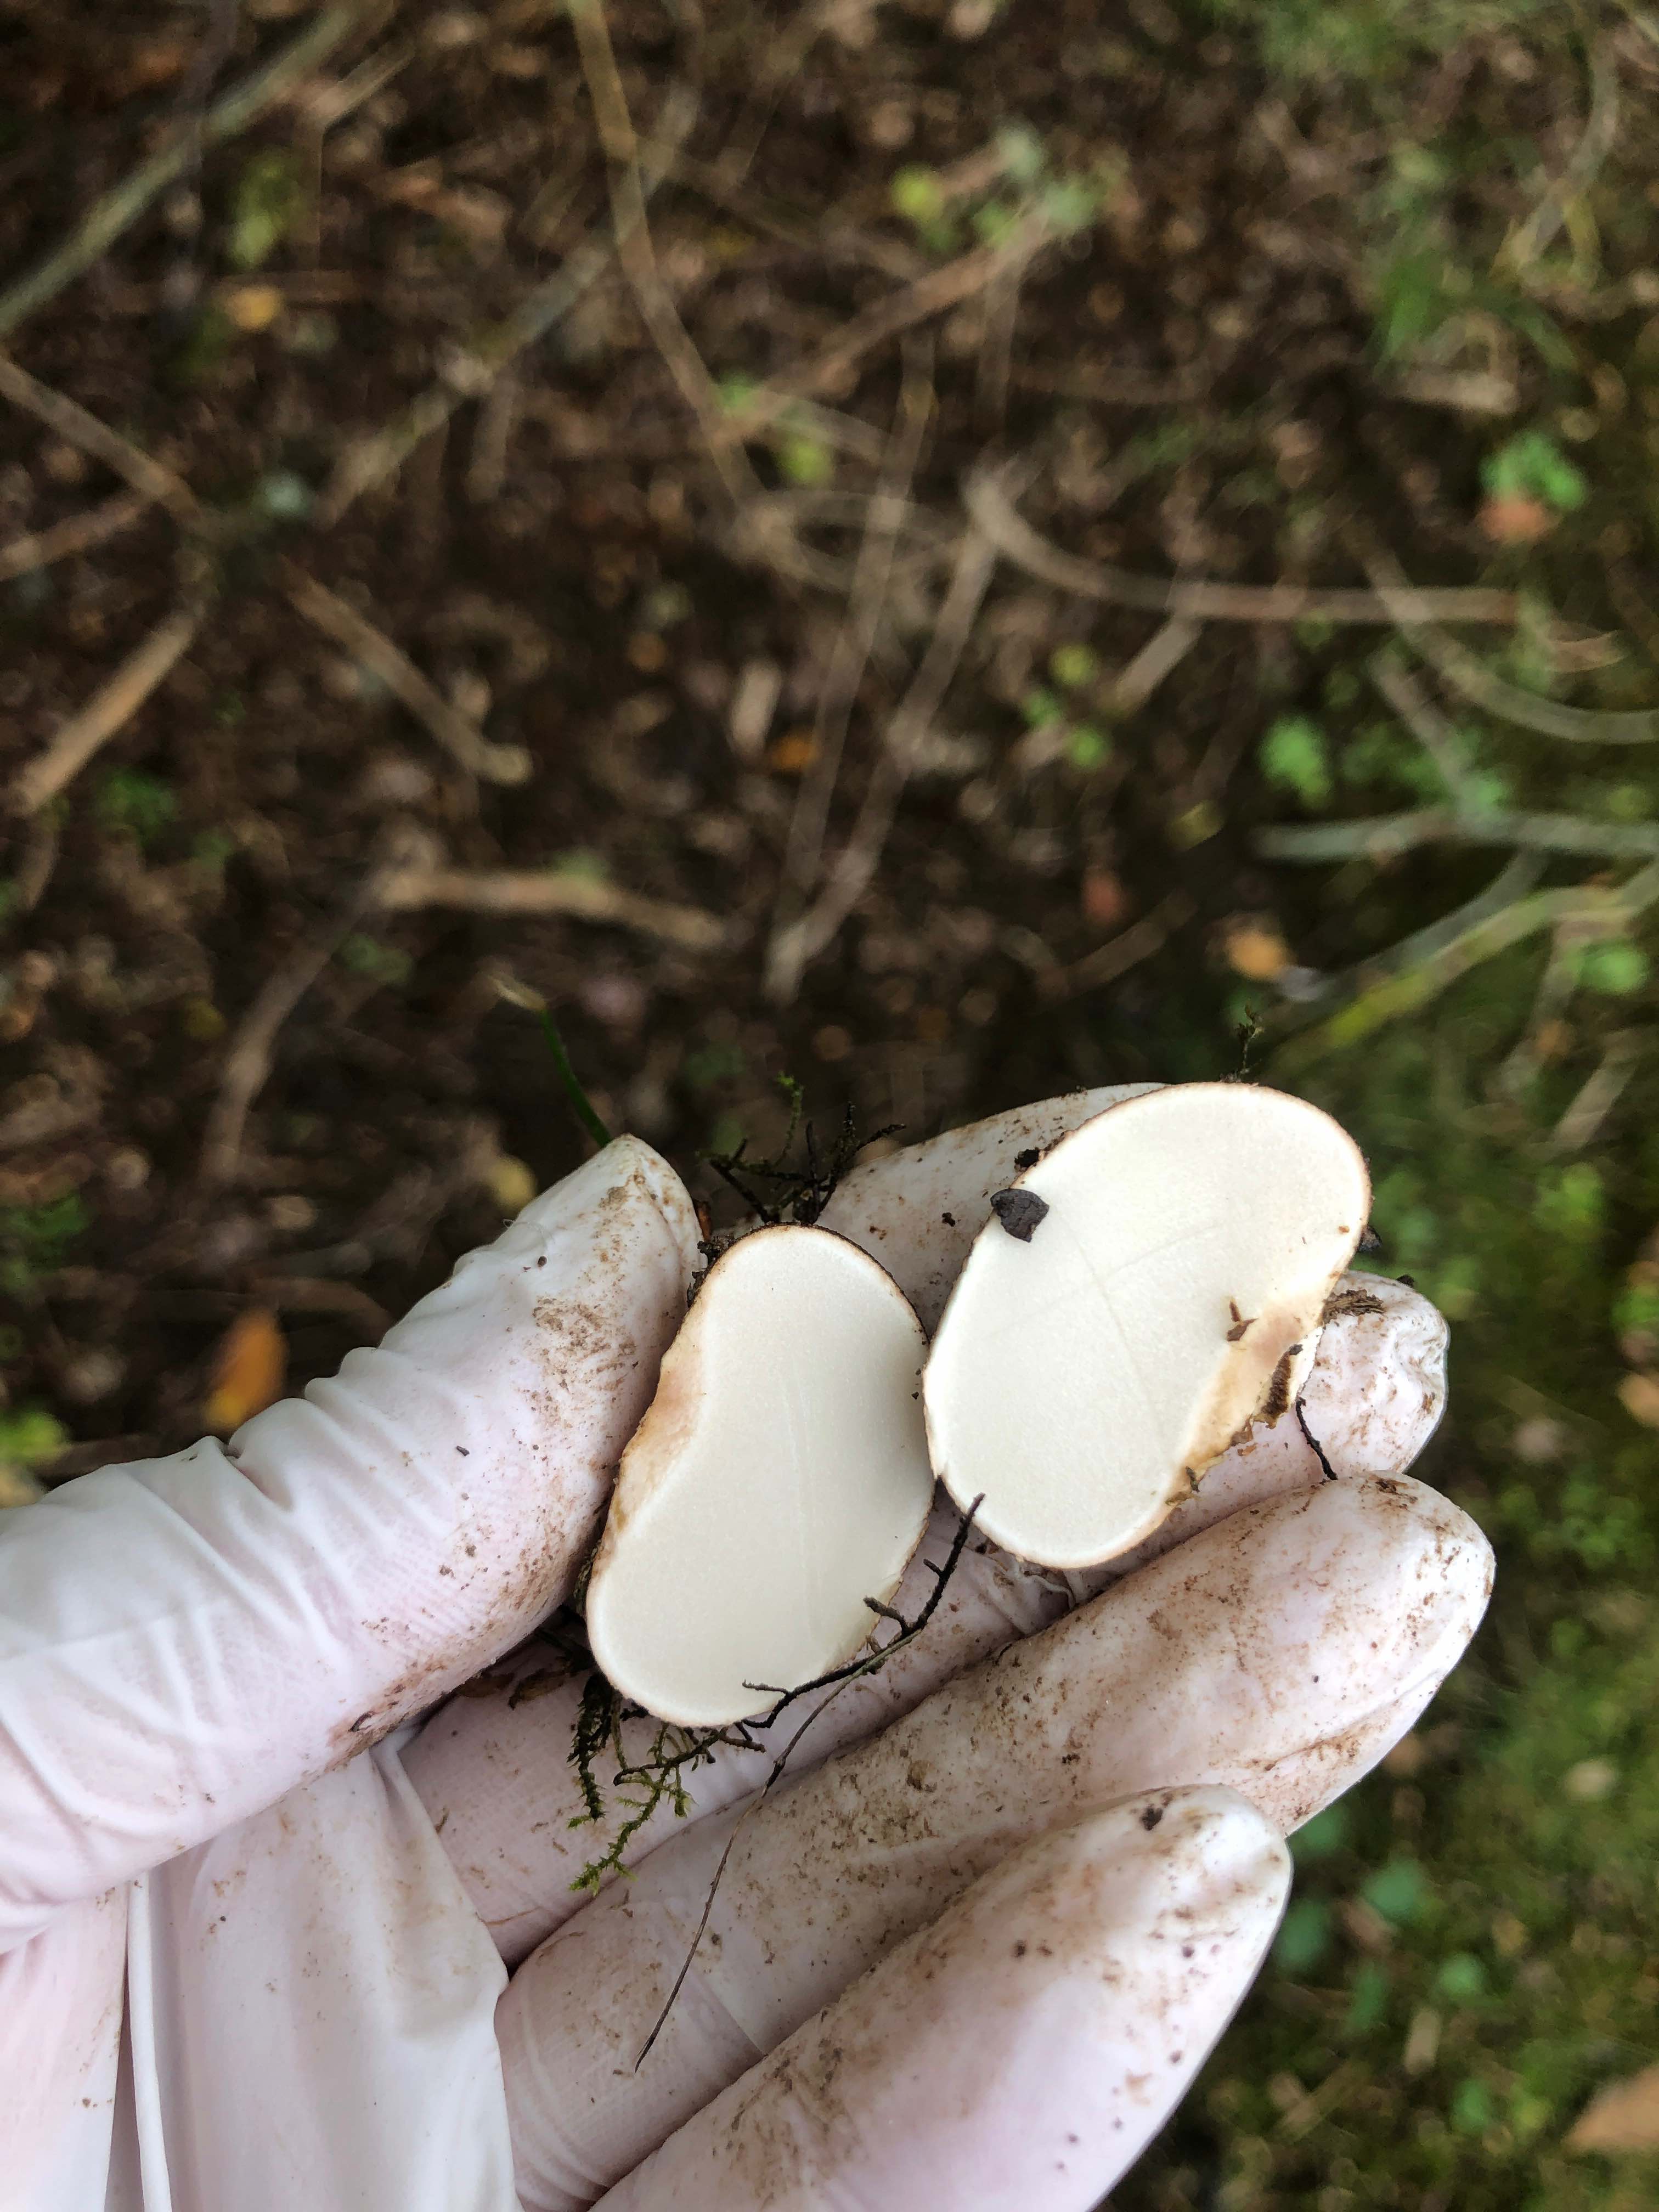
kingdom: Fungi
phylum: Basidiomycota
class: Agaricomycetes
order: Boletales
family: Sclerodermataceae
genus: Scleroderma
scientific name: Scleroderma
